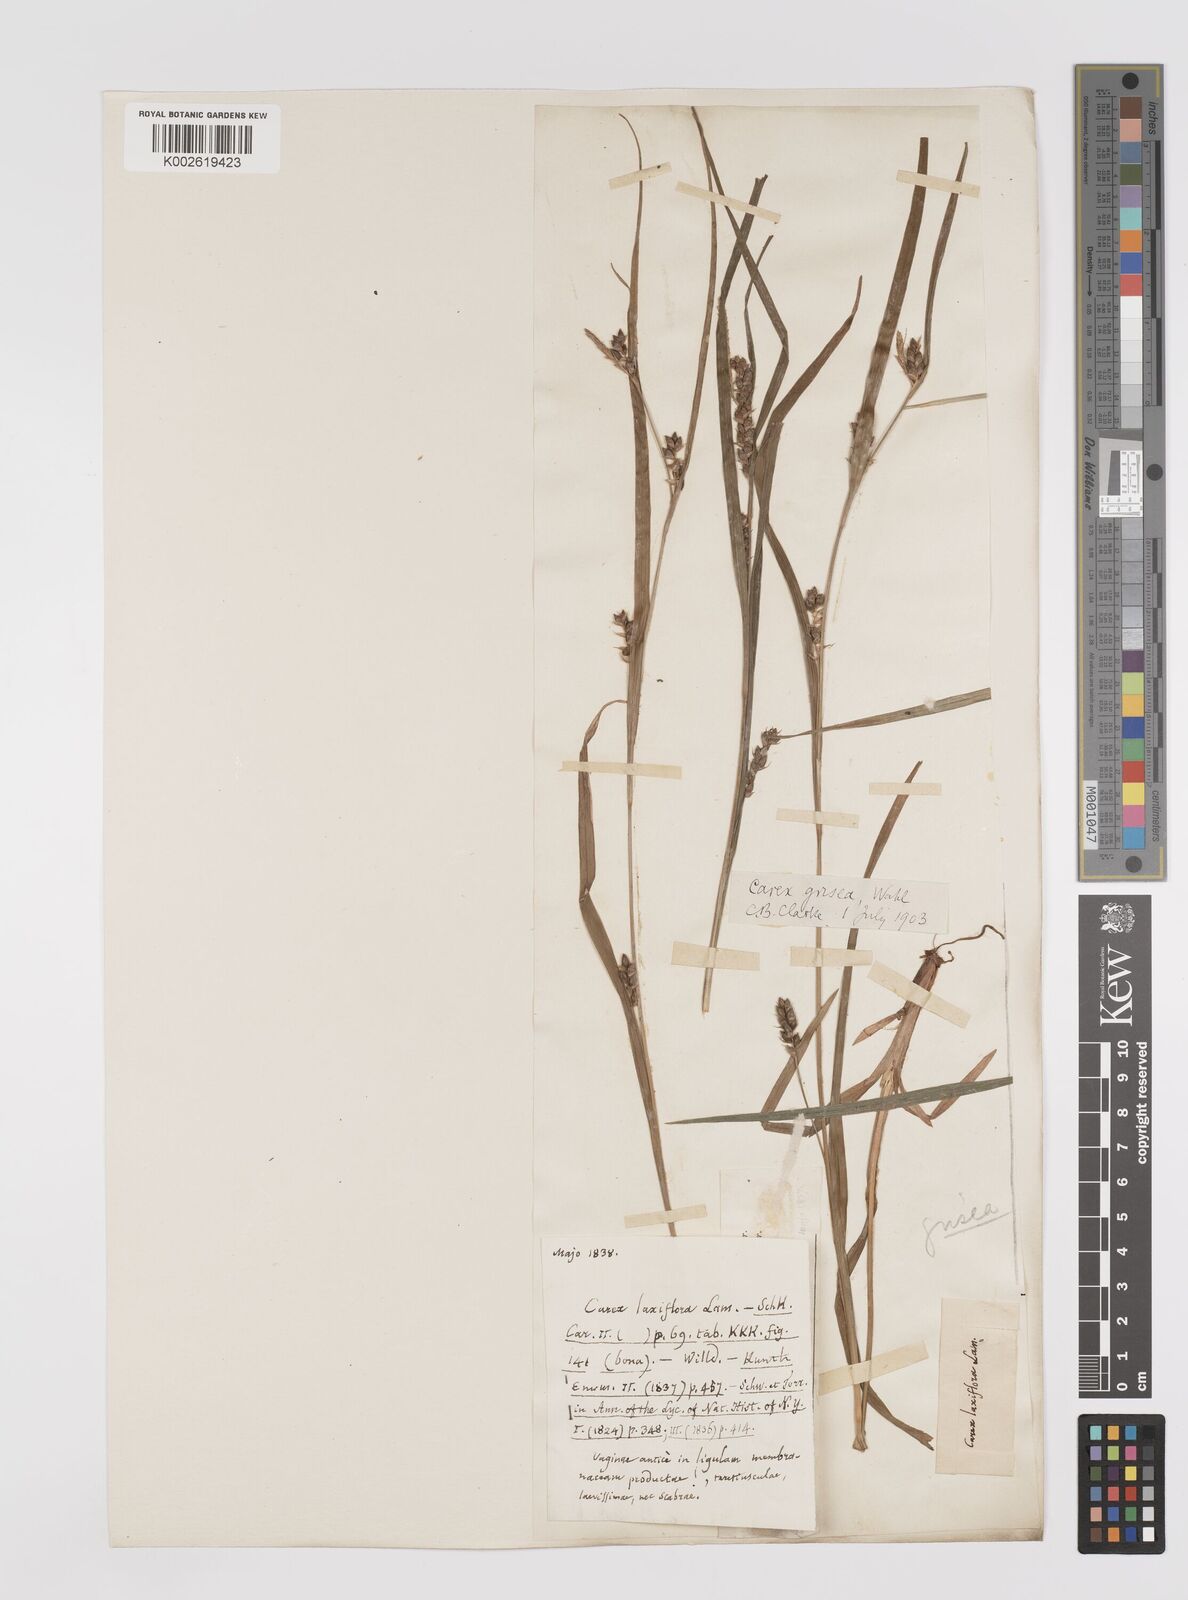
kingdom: Plantae
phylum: Tracheophyta
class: Liliopsida
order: Poales
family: Cyperaceae
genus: Carex
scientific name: Carex grisea
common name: Eastern narrow-leaved sedge
